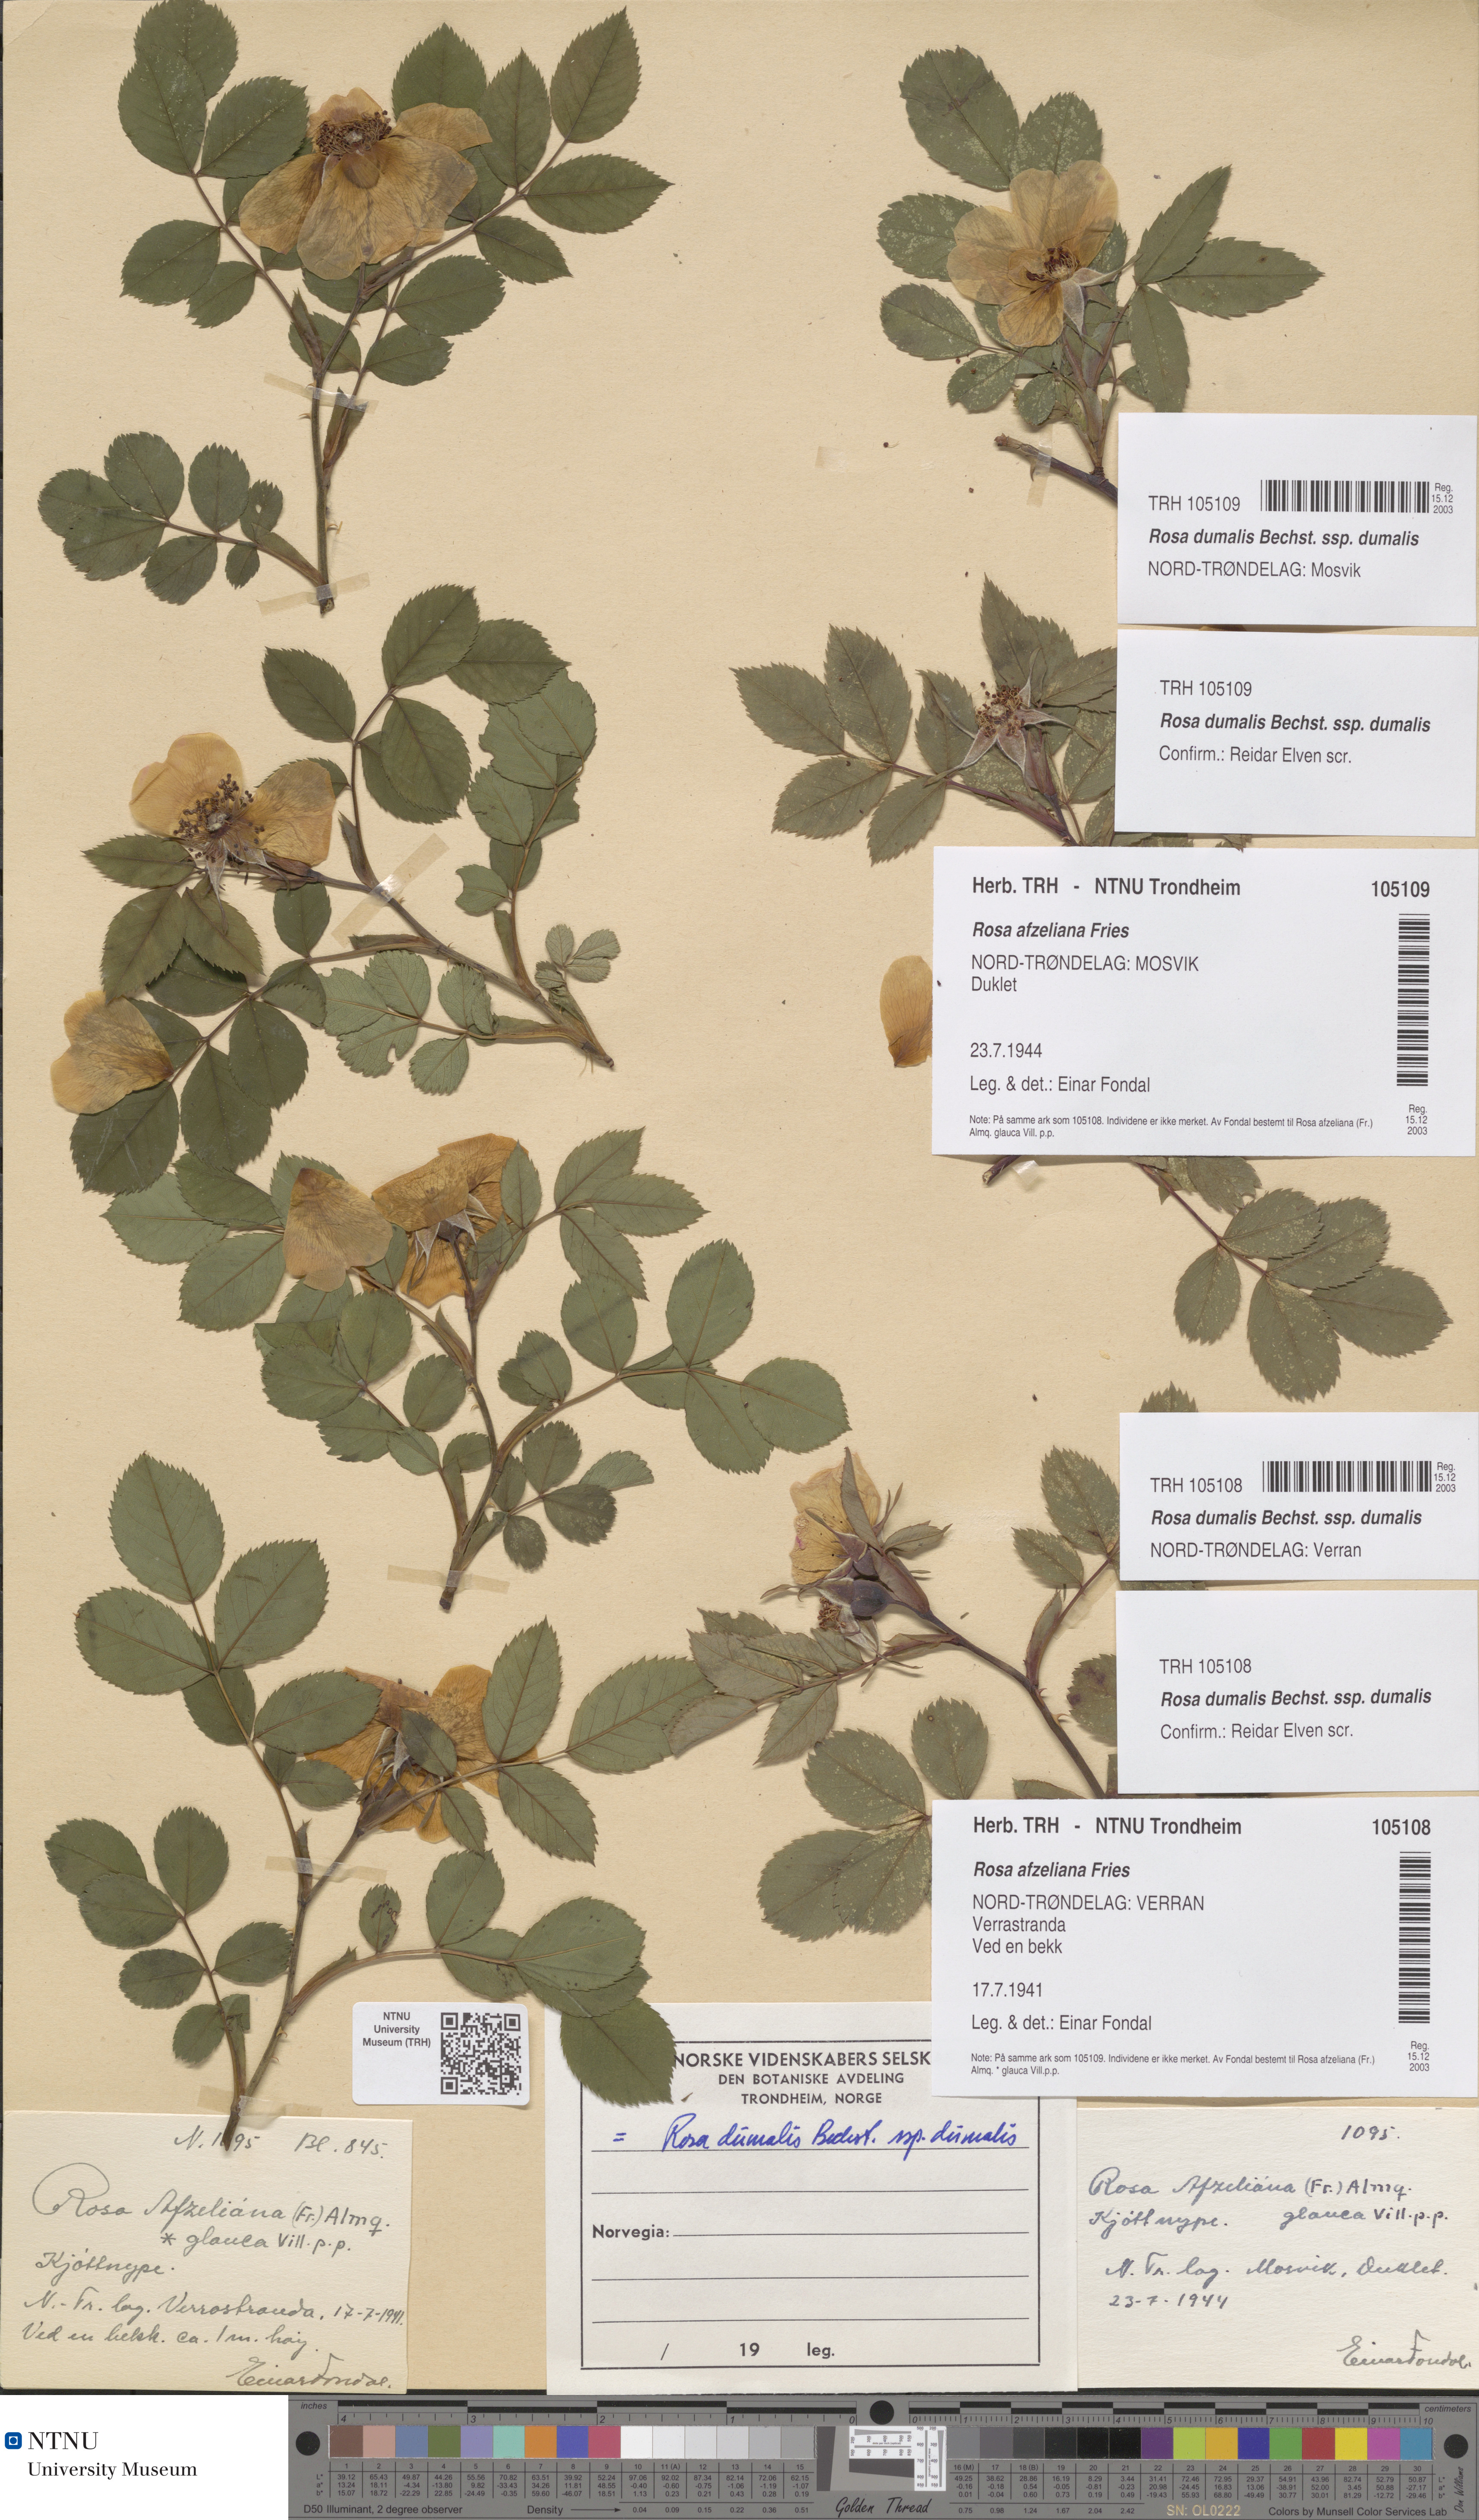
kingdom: Plantae
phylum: Tracheophyta
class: Magnoliopsida
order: Rosales
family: Rosaceae
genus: Rosa
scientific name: Rosa dumalis
